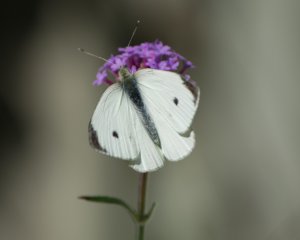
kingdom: Animalia
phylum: Arthropoda
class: Insecta
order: Lepidoptera
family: Pieridae
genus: Pieris
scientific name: Pieris rapae
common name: Cabbage White
